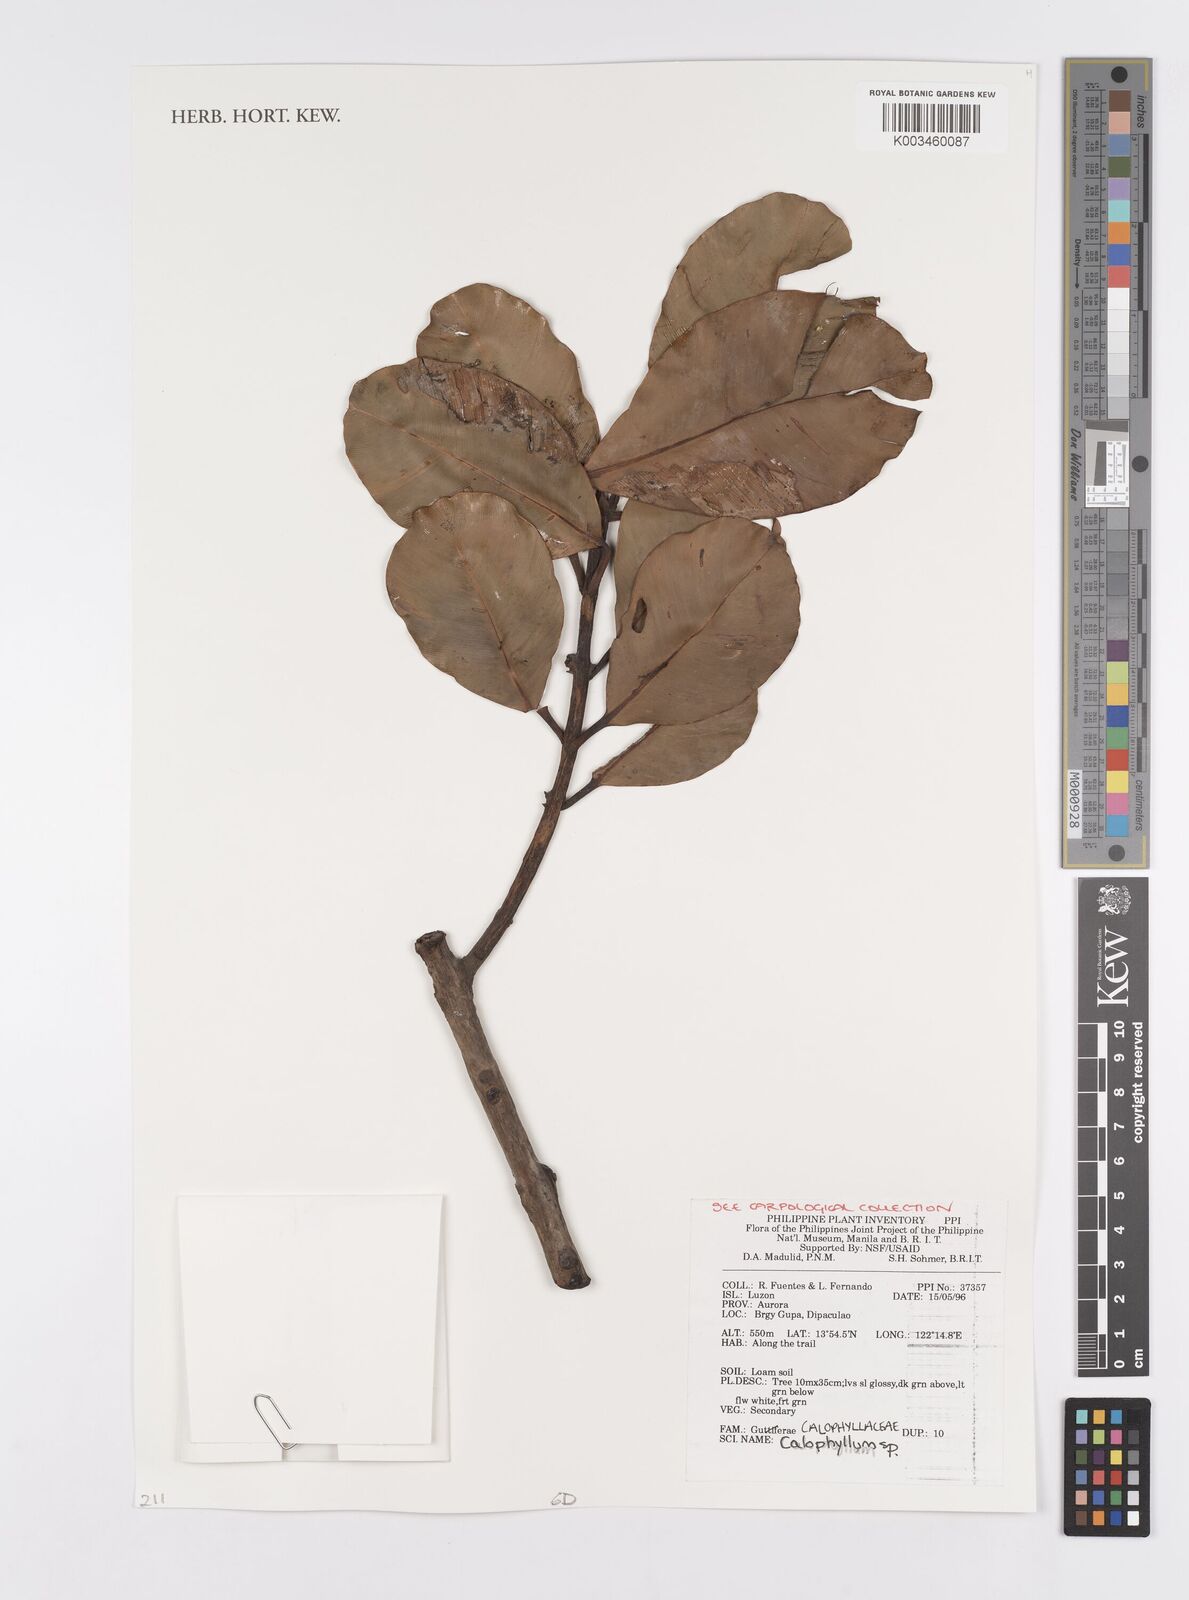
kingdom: Plantae
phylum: Tracheophyta
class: Magnoliopsida
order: Malpighiales
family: Calophyllaceae
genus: Calophyllum
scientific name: Calophyllum
